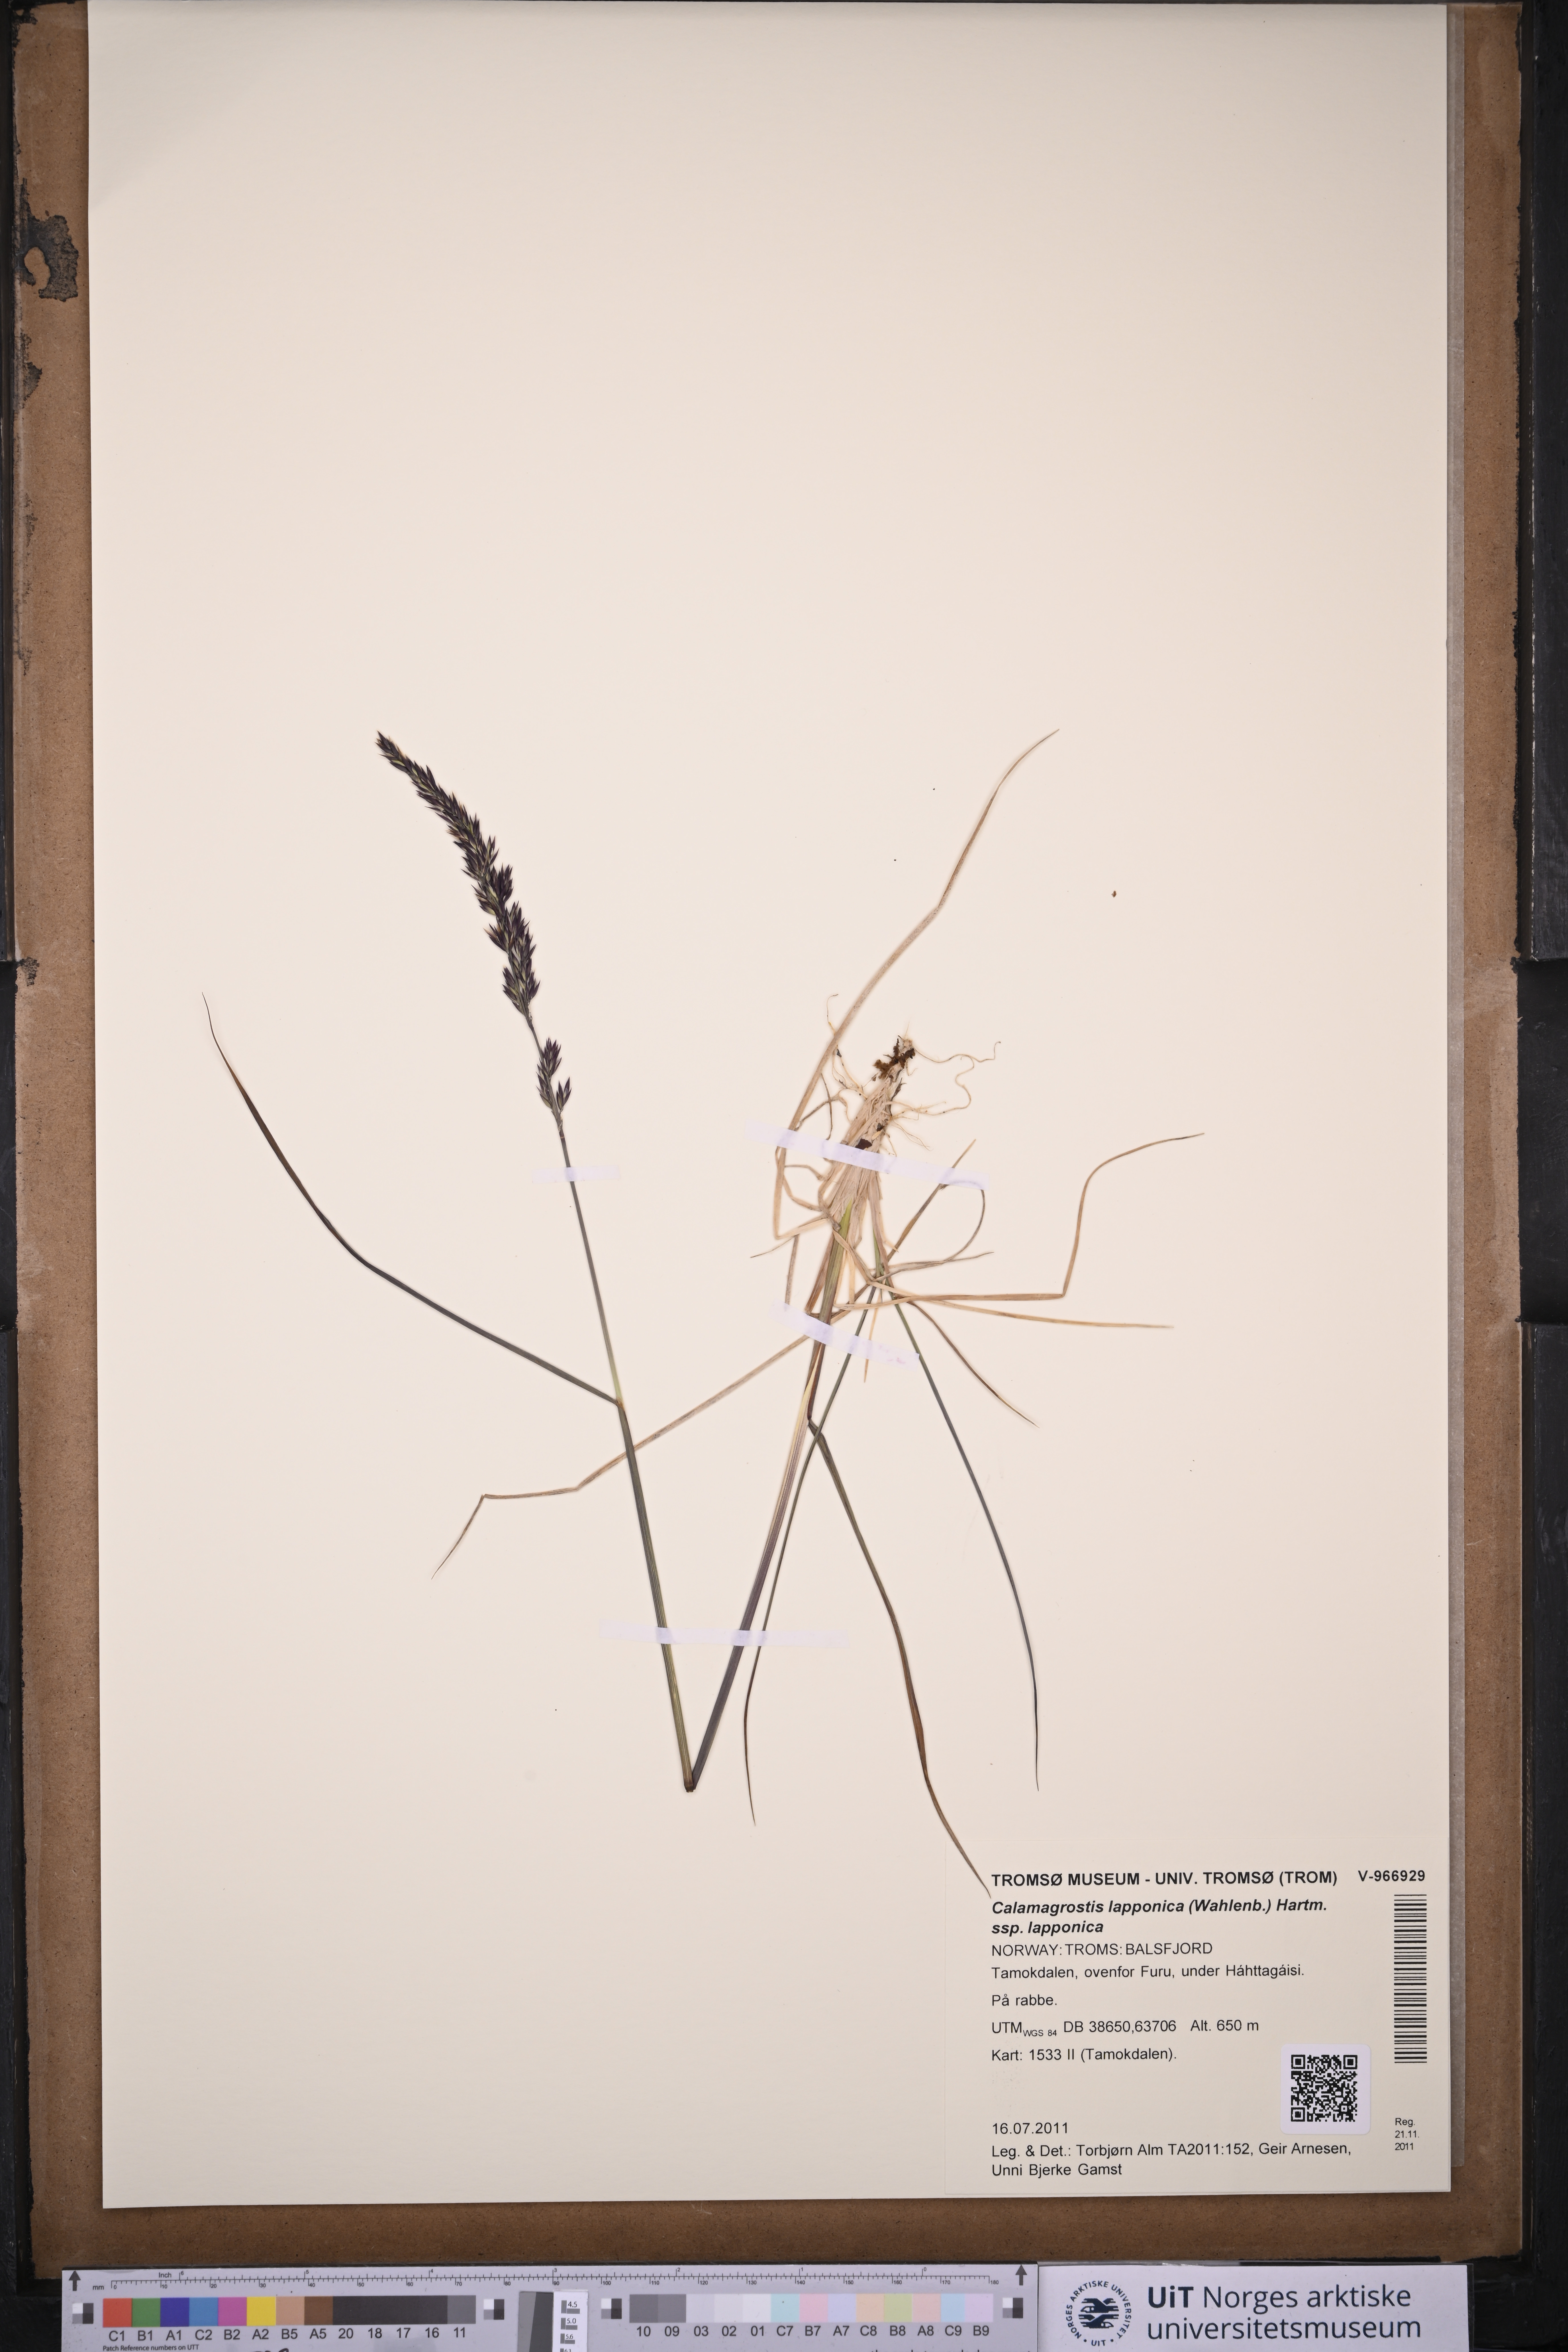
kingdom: Plantae
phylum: Tracheophyta
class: Liliopsida
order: Poales
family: Poaceae
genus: Calamagrostis
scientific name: Calamagrostis lapponica
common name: Lapland reedgrass
